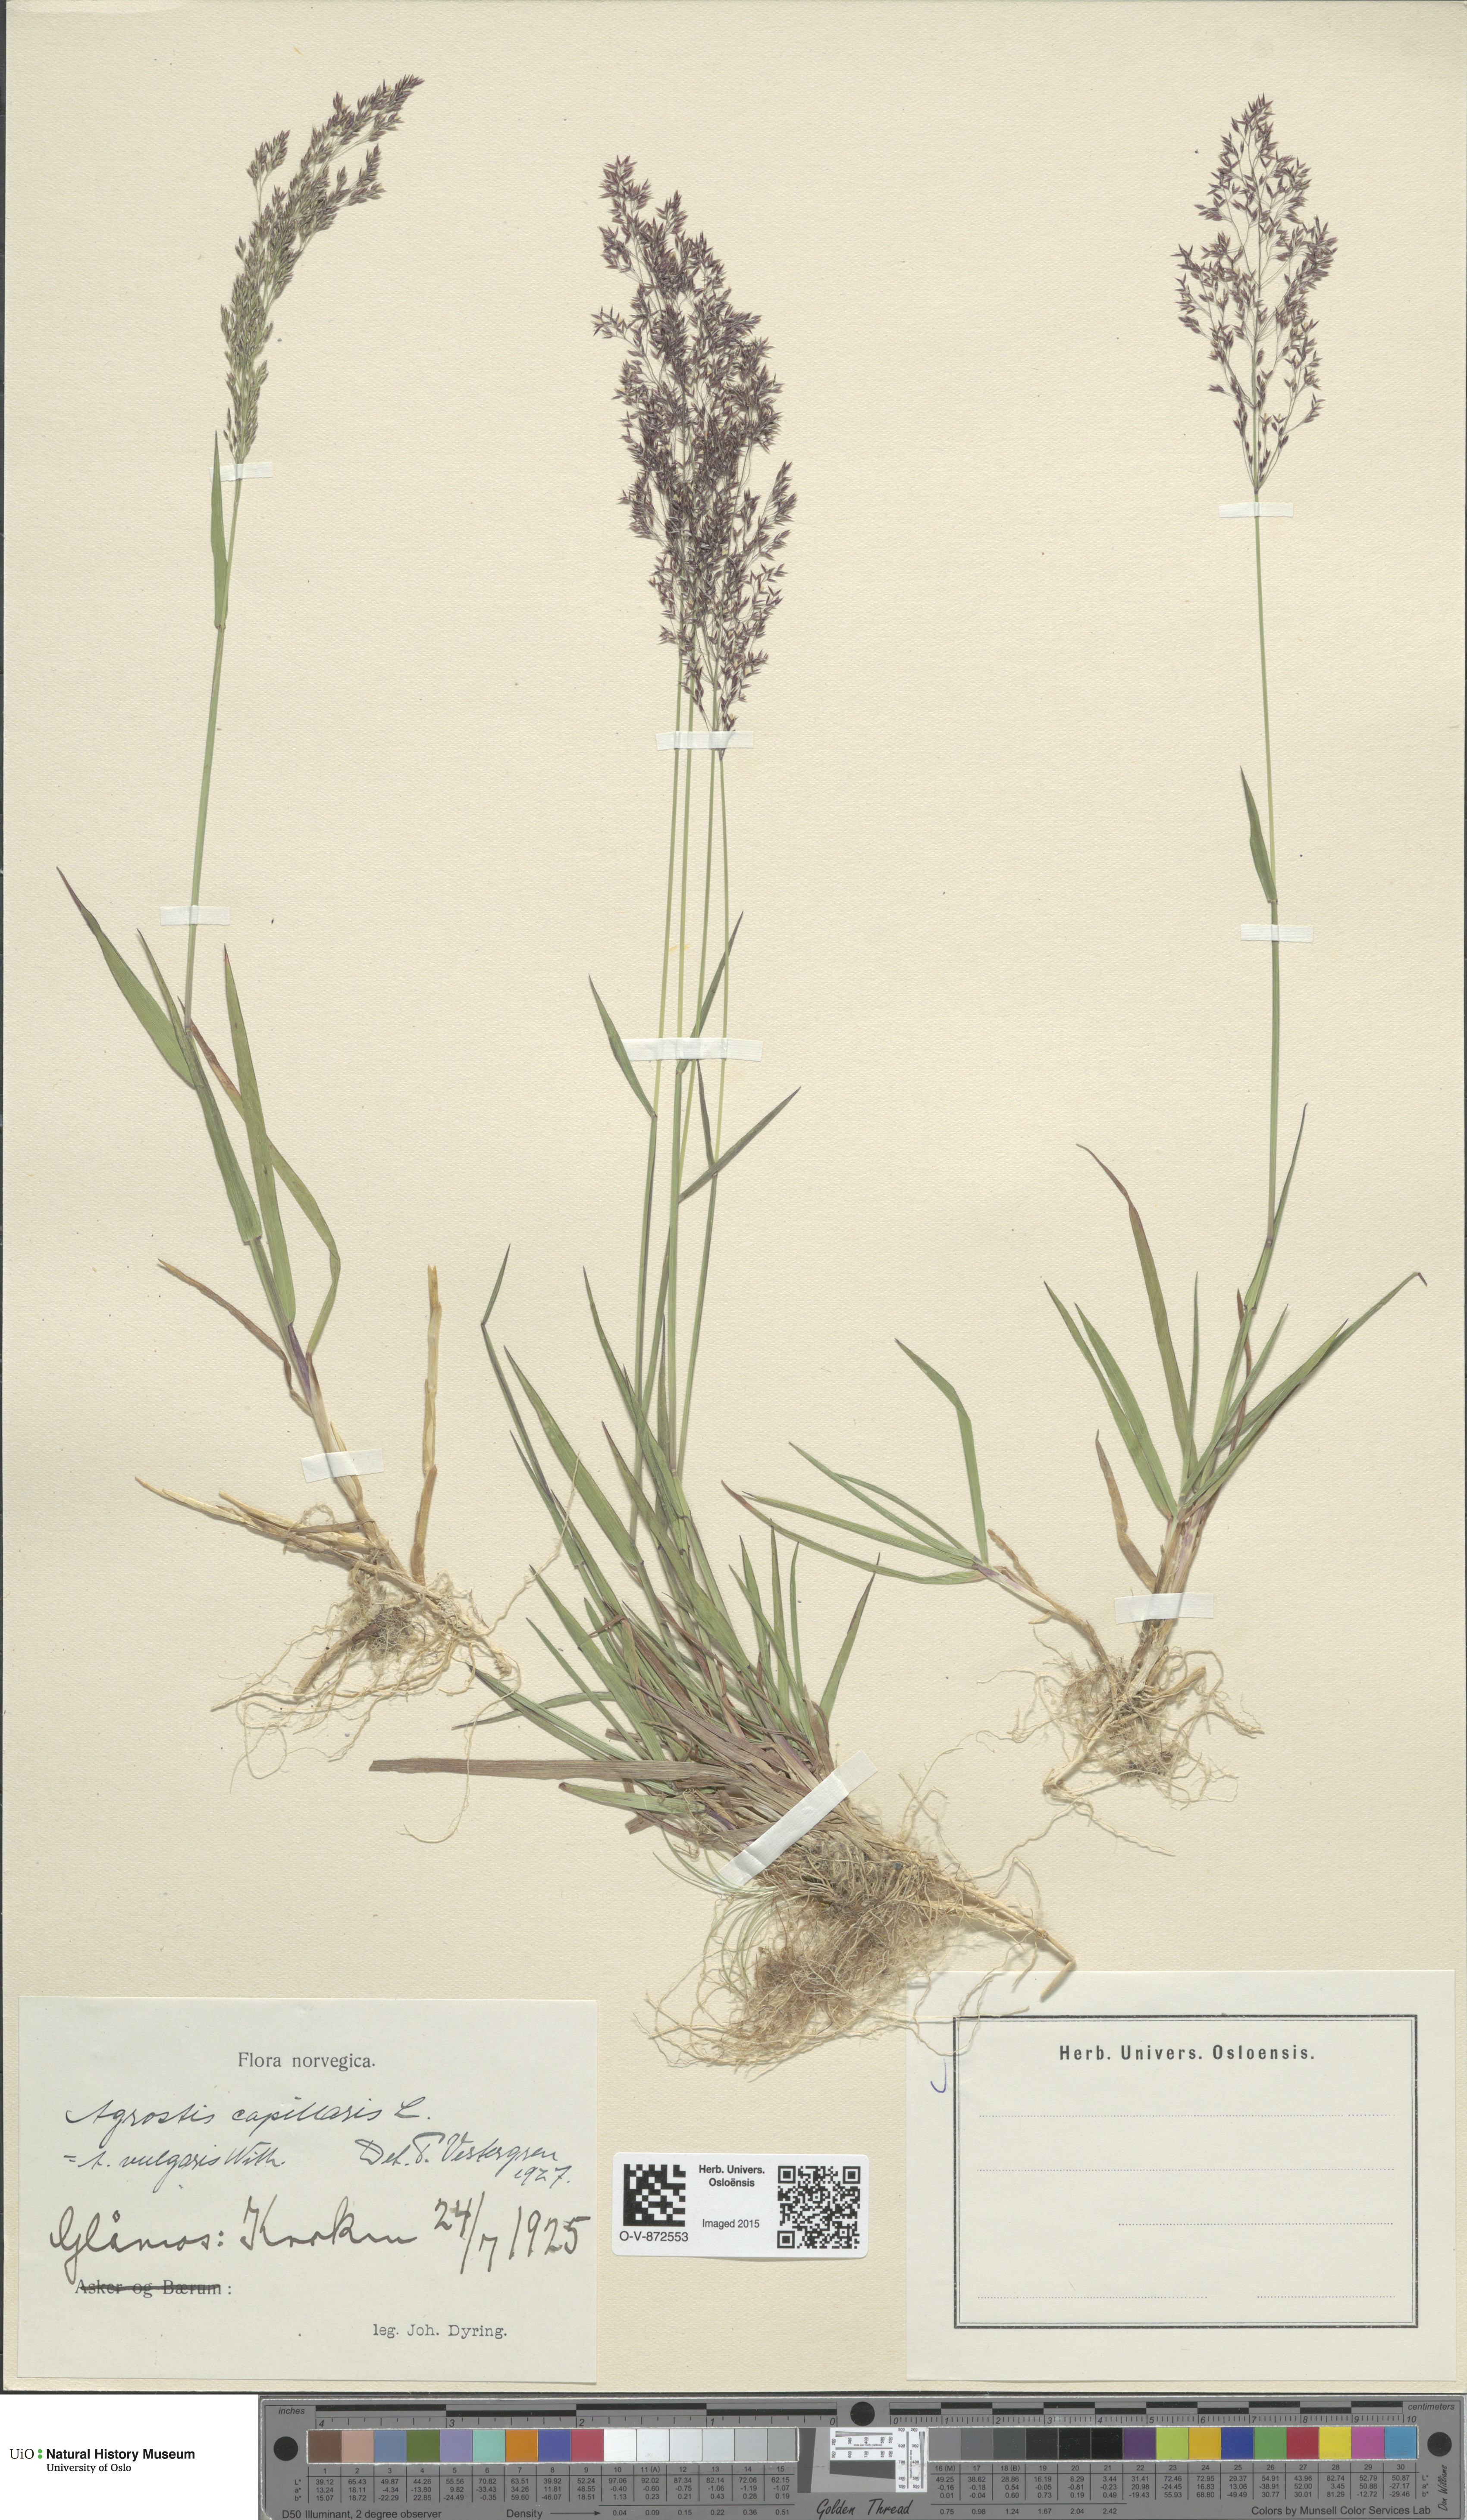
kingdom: Plantae
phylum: Tracheophyta
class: Liliopsida
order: Poales
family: Poaceae
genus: Agrostis
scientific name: Agrostis capillaris
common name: Colonial bentgrass
